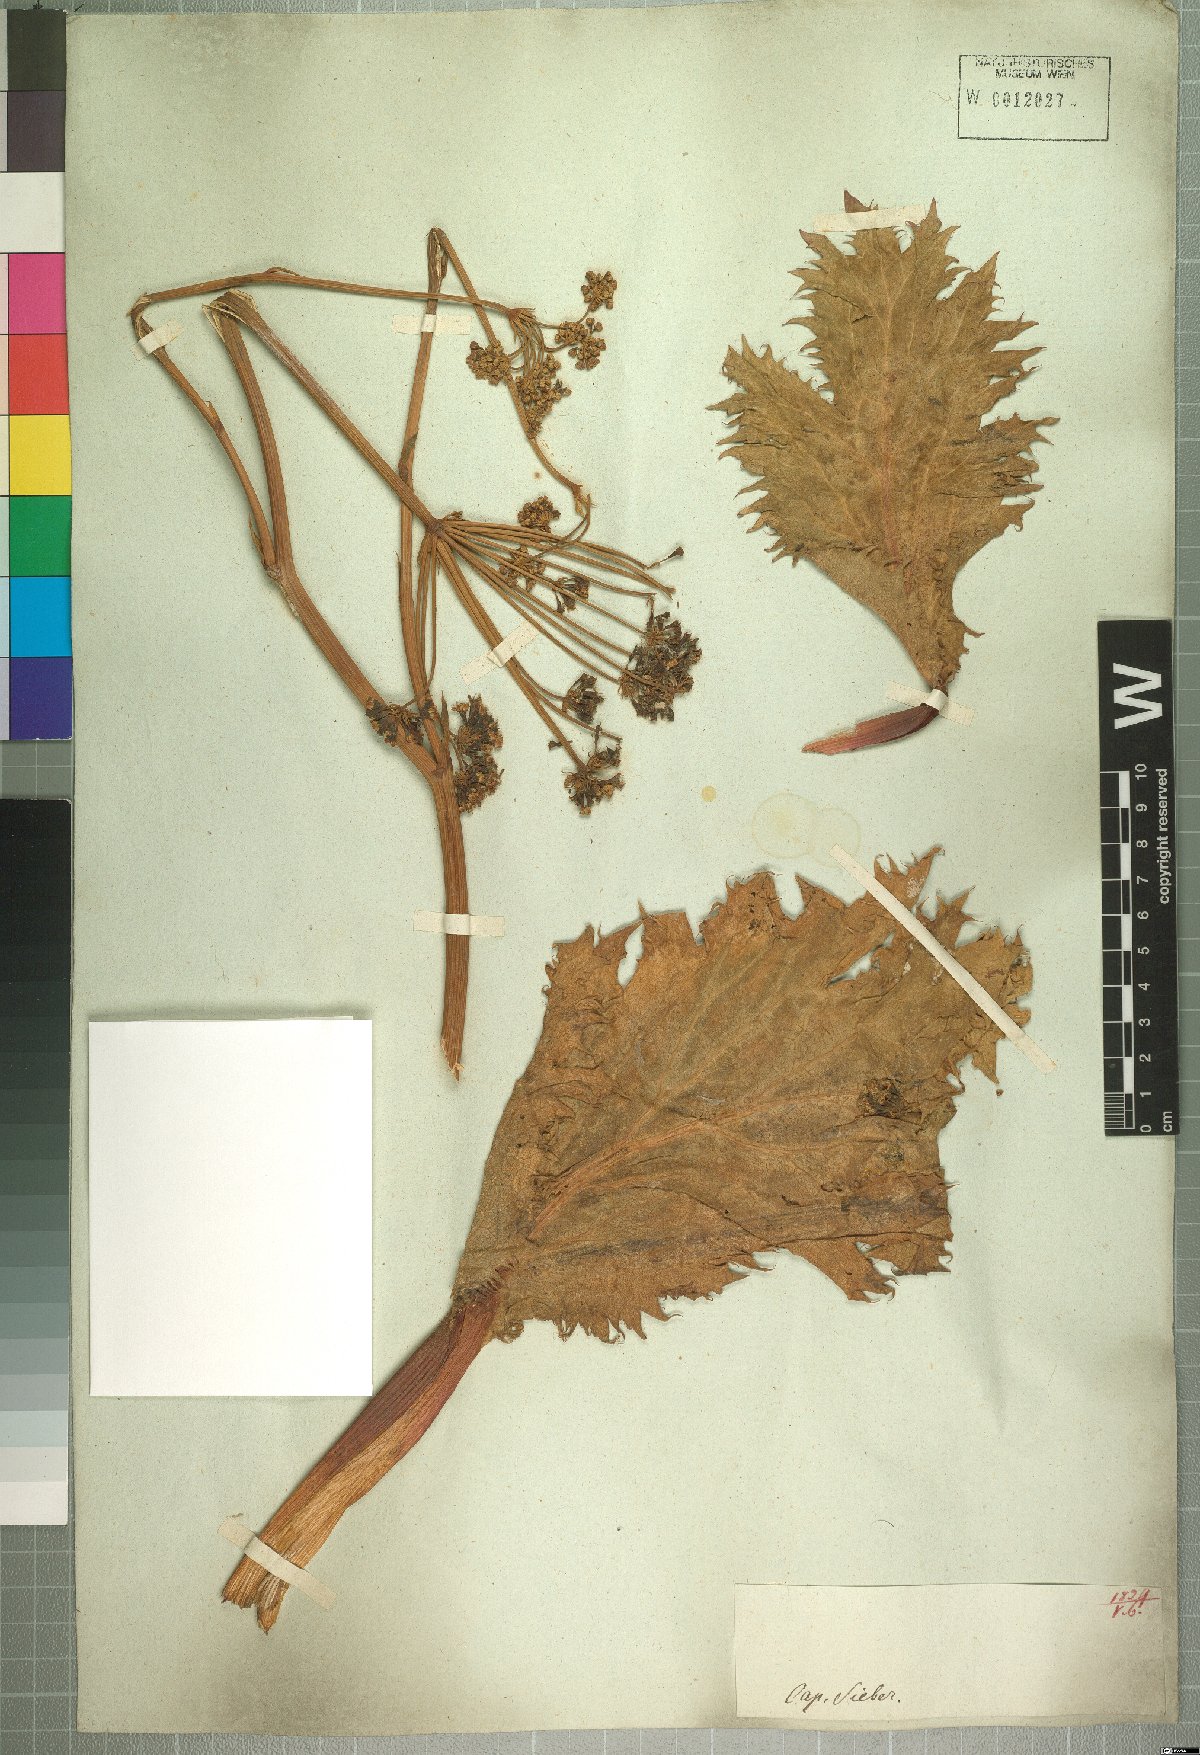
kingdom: Plantae
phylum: Tracheophyta
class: Magnoliopsida
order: Apiales
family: Apiaceae
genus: Lichtensteinia
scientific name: Lichtensteinia lacera
